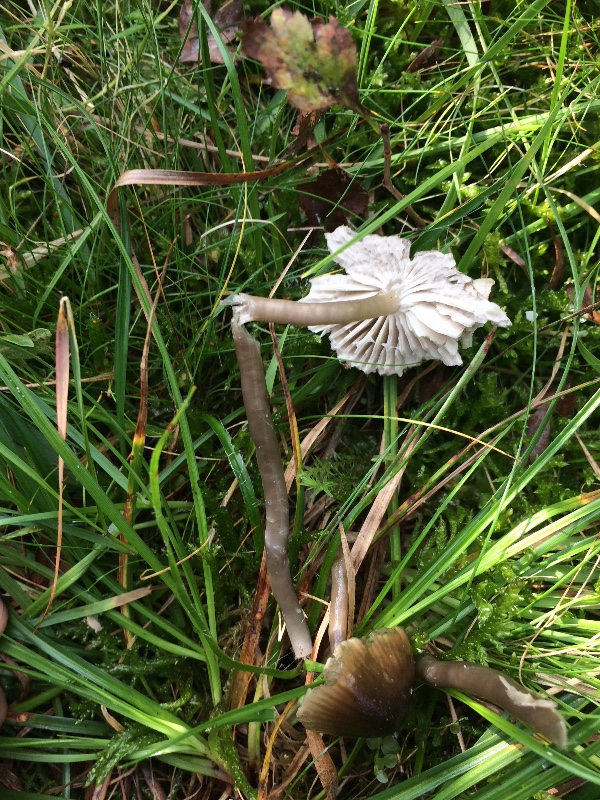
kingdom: Fungi
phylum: Basidiomycota
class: Agaricomycetes
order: Agaricales
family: Hygrophoraceae
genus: Gliophorus
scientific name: Gliophorus irrigatus
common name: slimet vokshat
